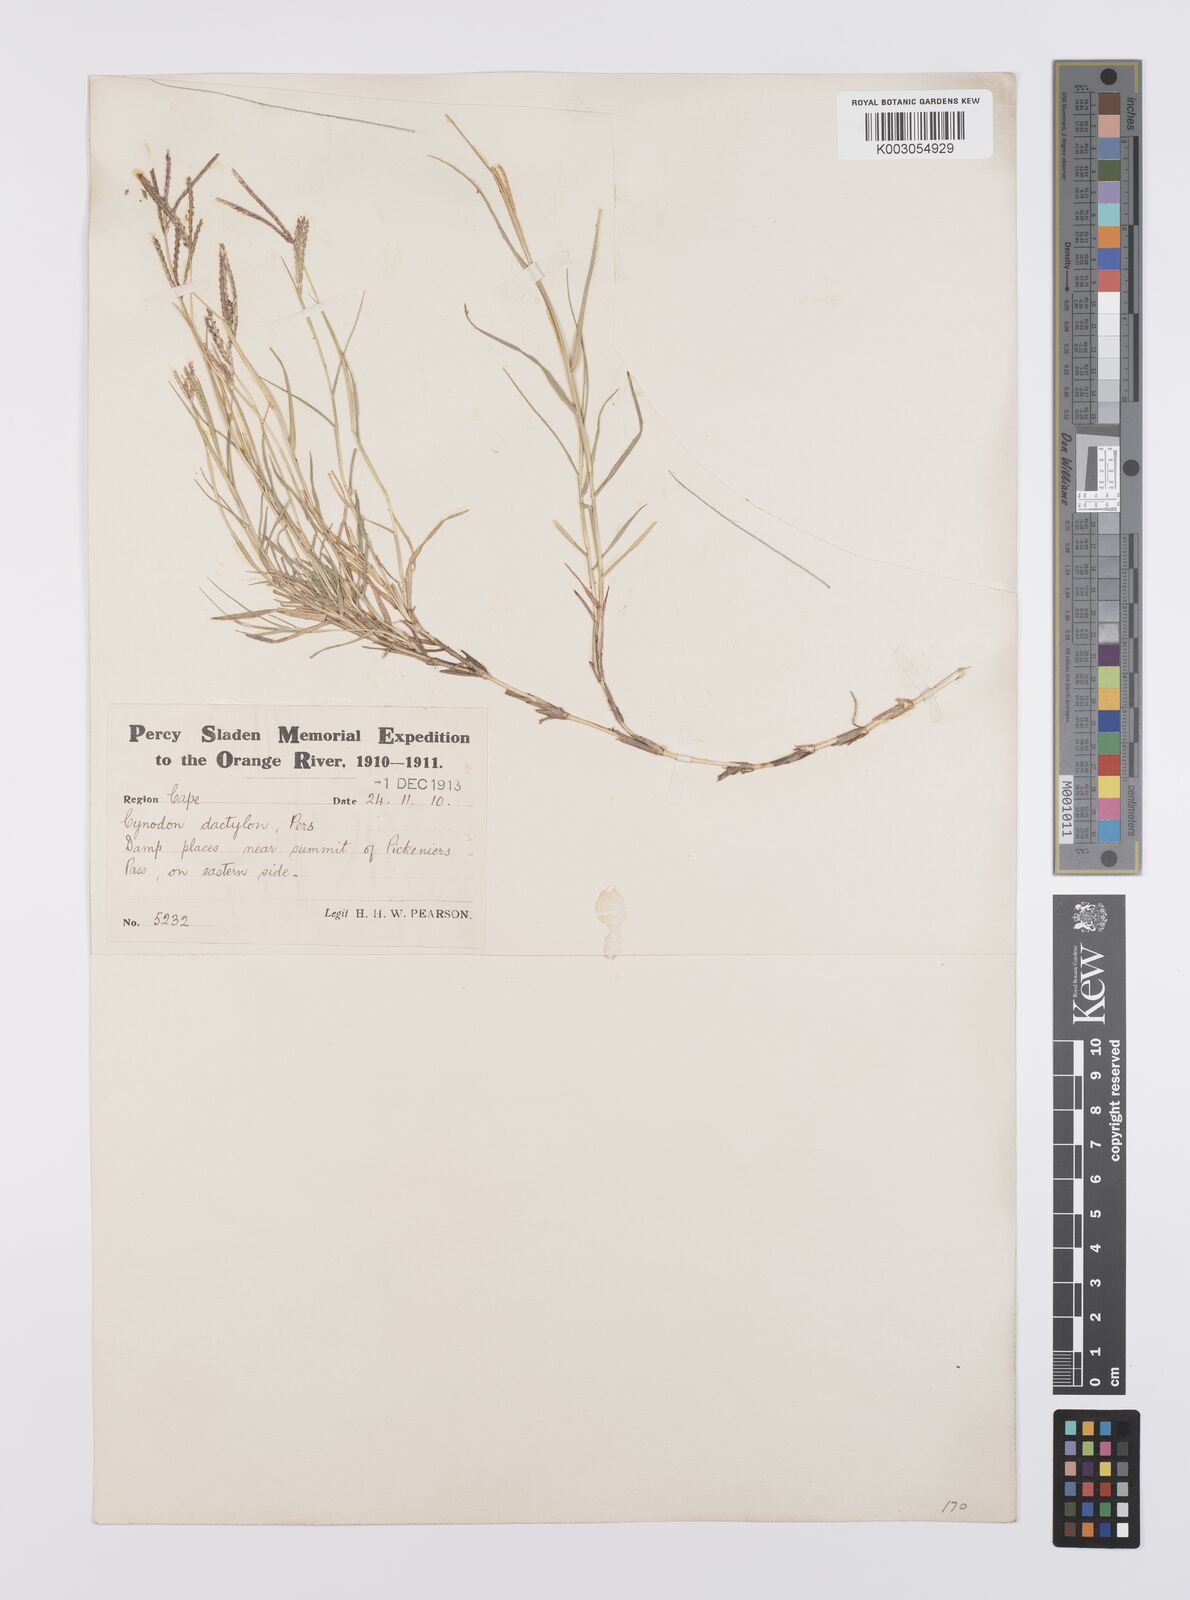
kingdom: Plantae
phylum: Tracheophyta
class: Liliopsida
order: Poales
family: Poaceae
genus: Cynodon
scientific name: Cynodon dactylon
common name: Bermuda grass
